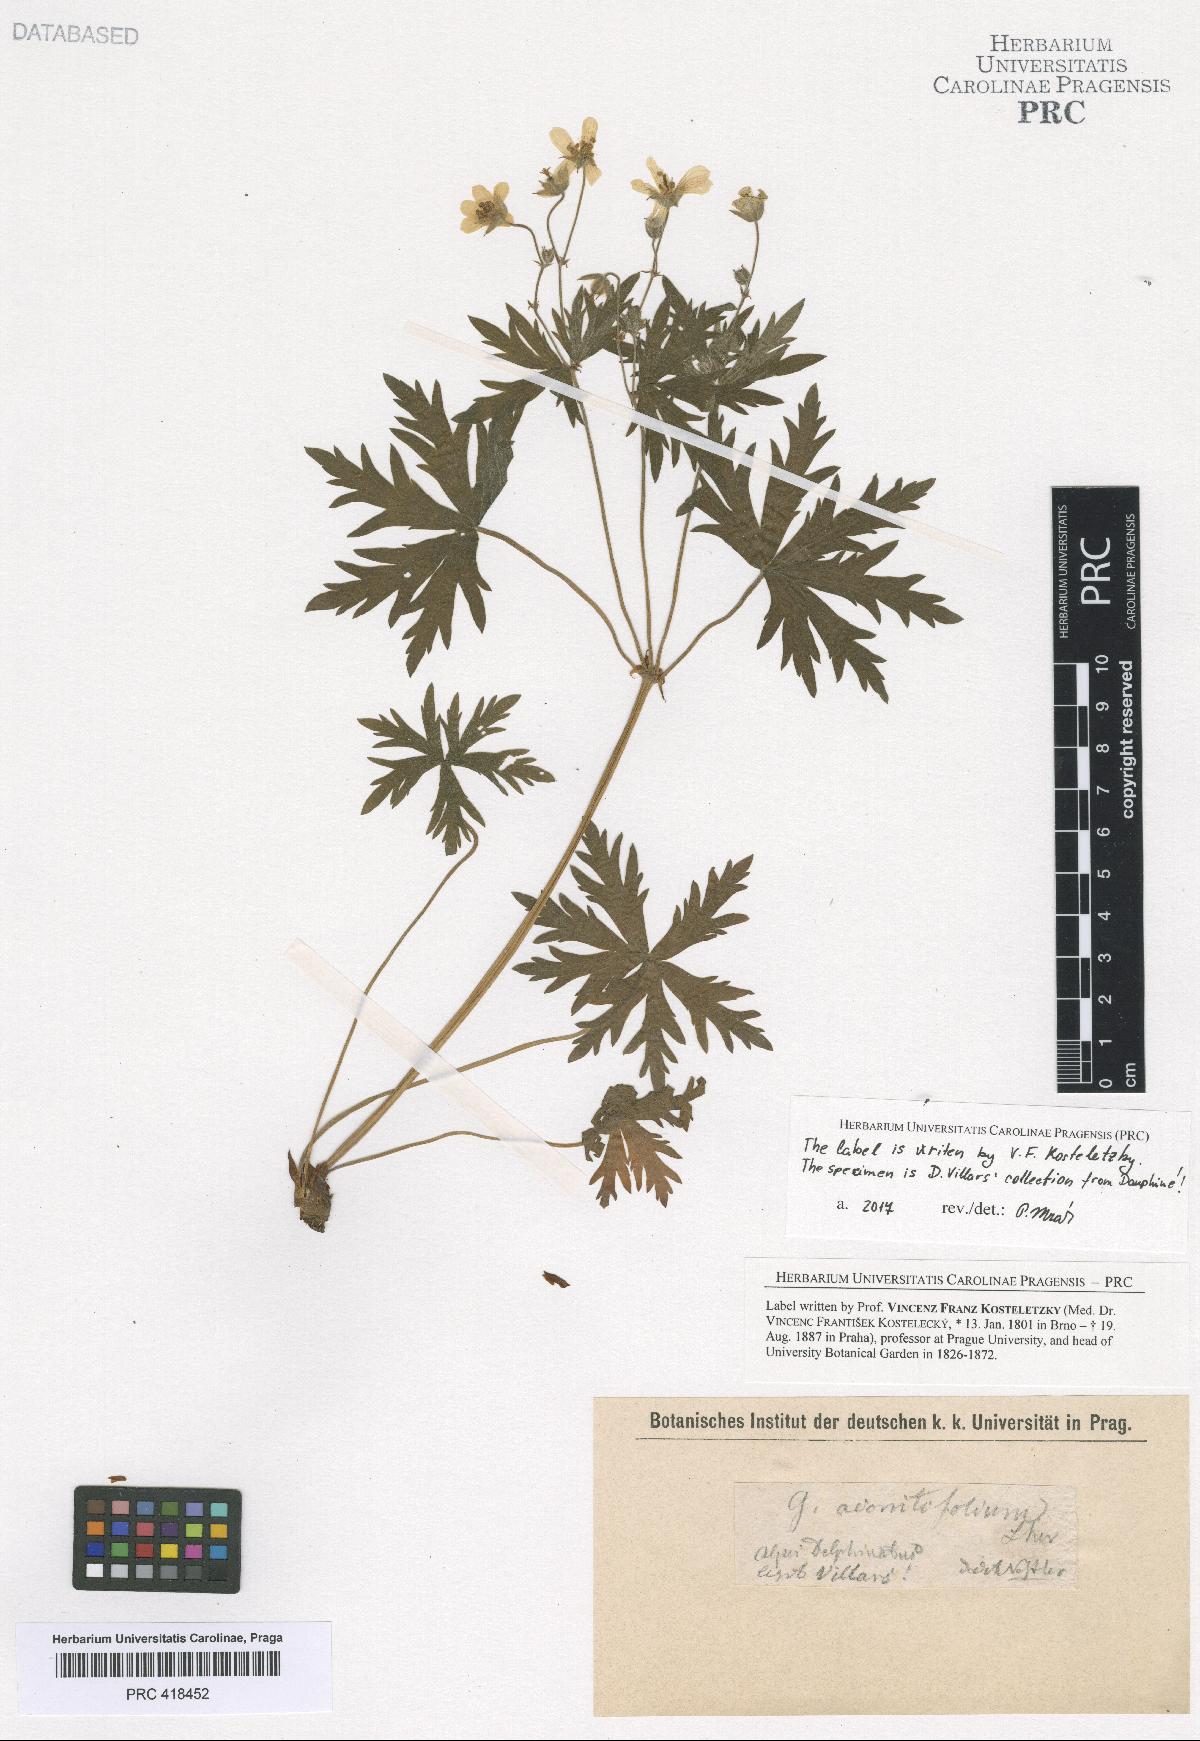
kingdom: Plantae
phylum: Tracheophyta
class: Magnoliopsida
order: Geraniales
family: Geraniaceae
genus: Geranium
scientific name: Geranium rivulare
